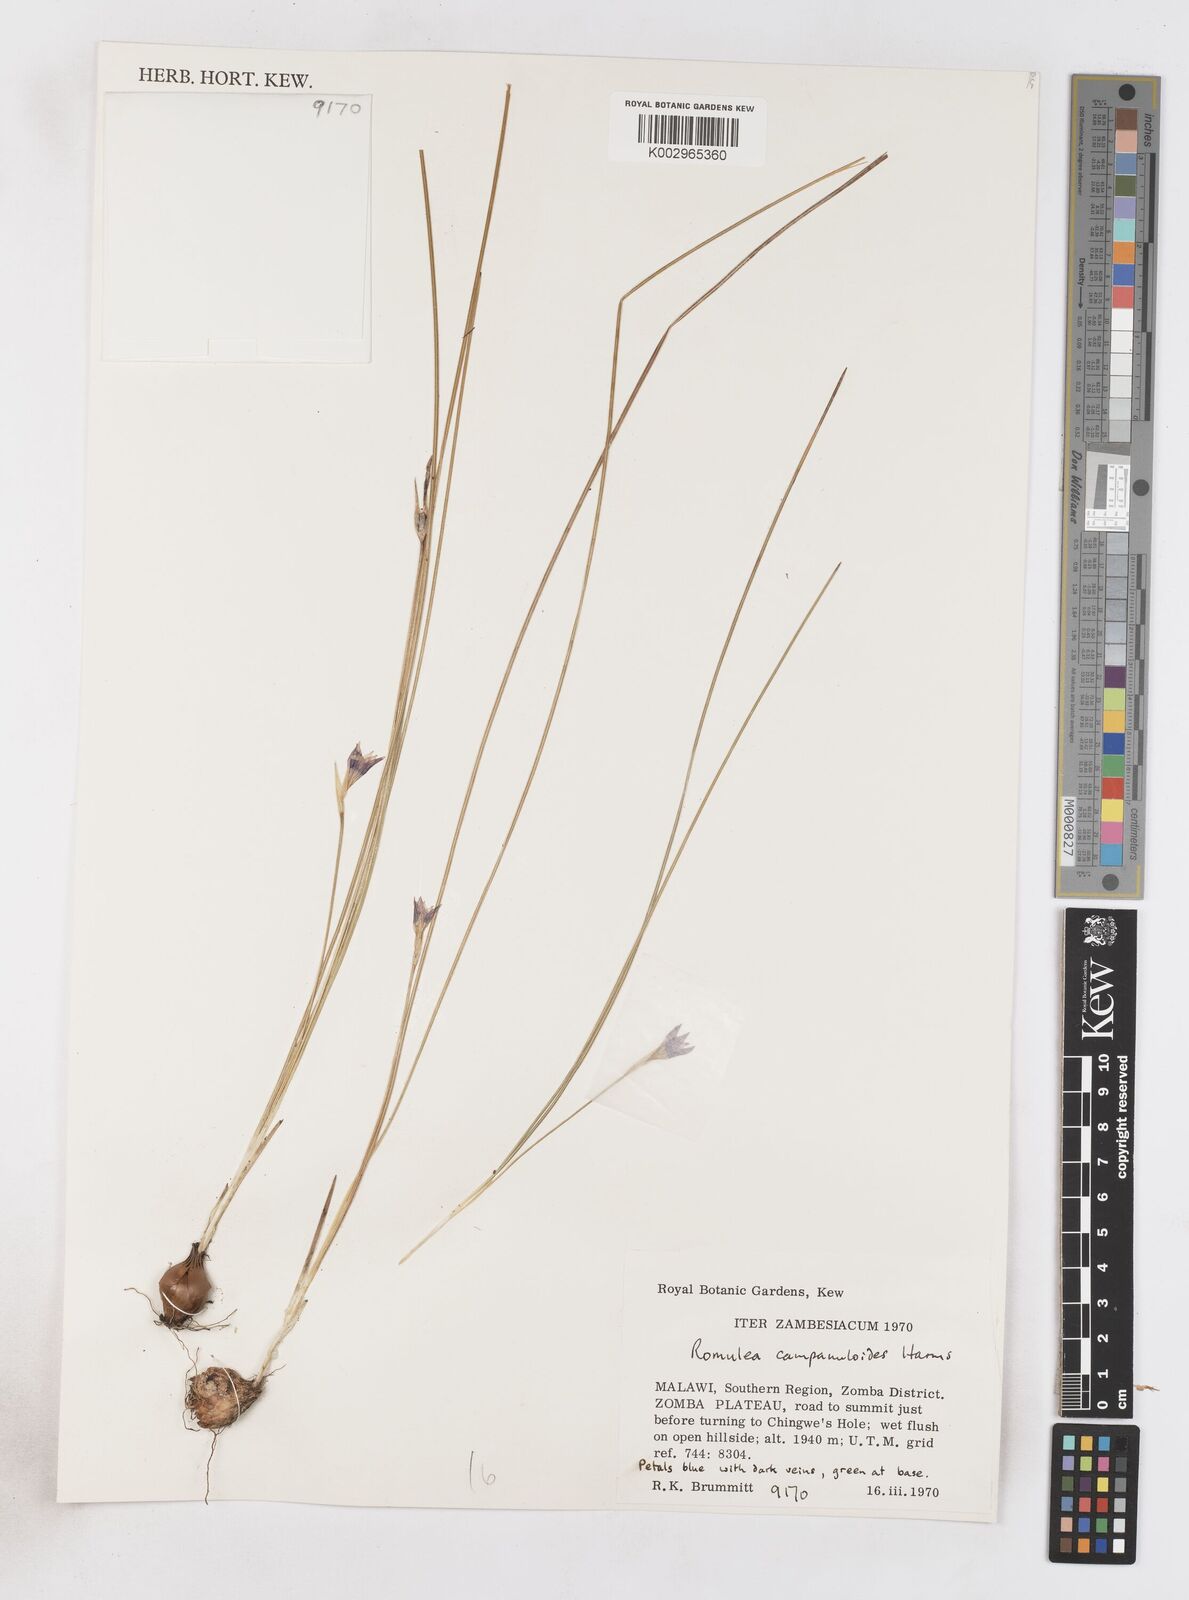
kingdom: Plantae
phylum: Tracheophyta
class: Liliopsida
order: Asparagales
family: Iridaceae
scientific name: Iridaceae
